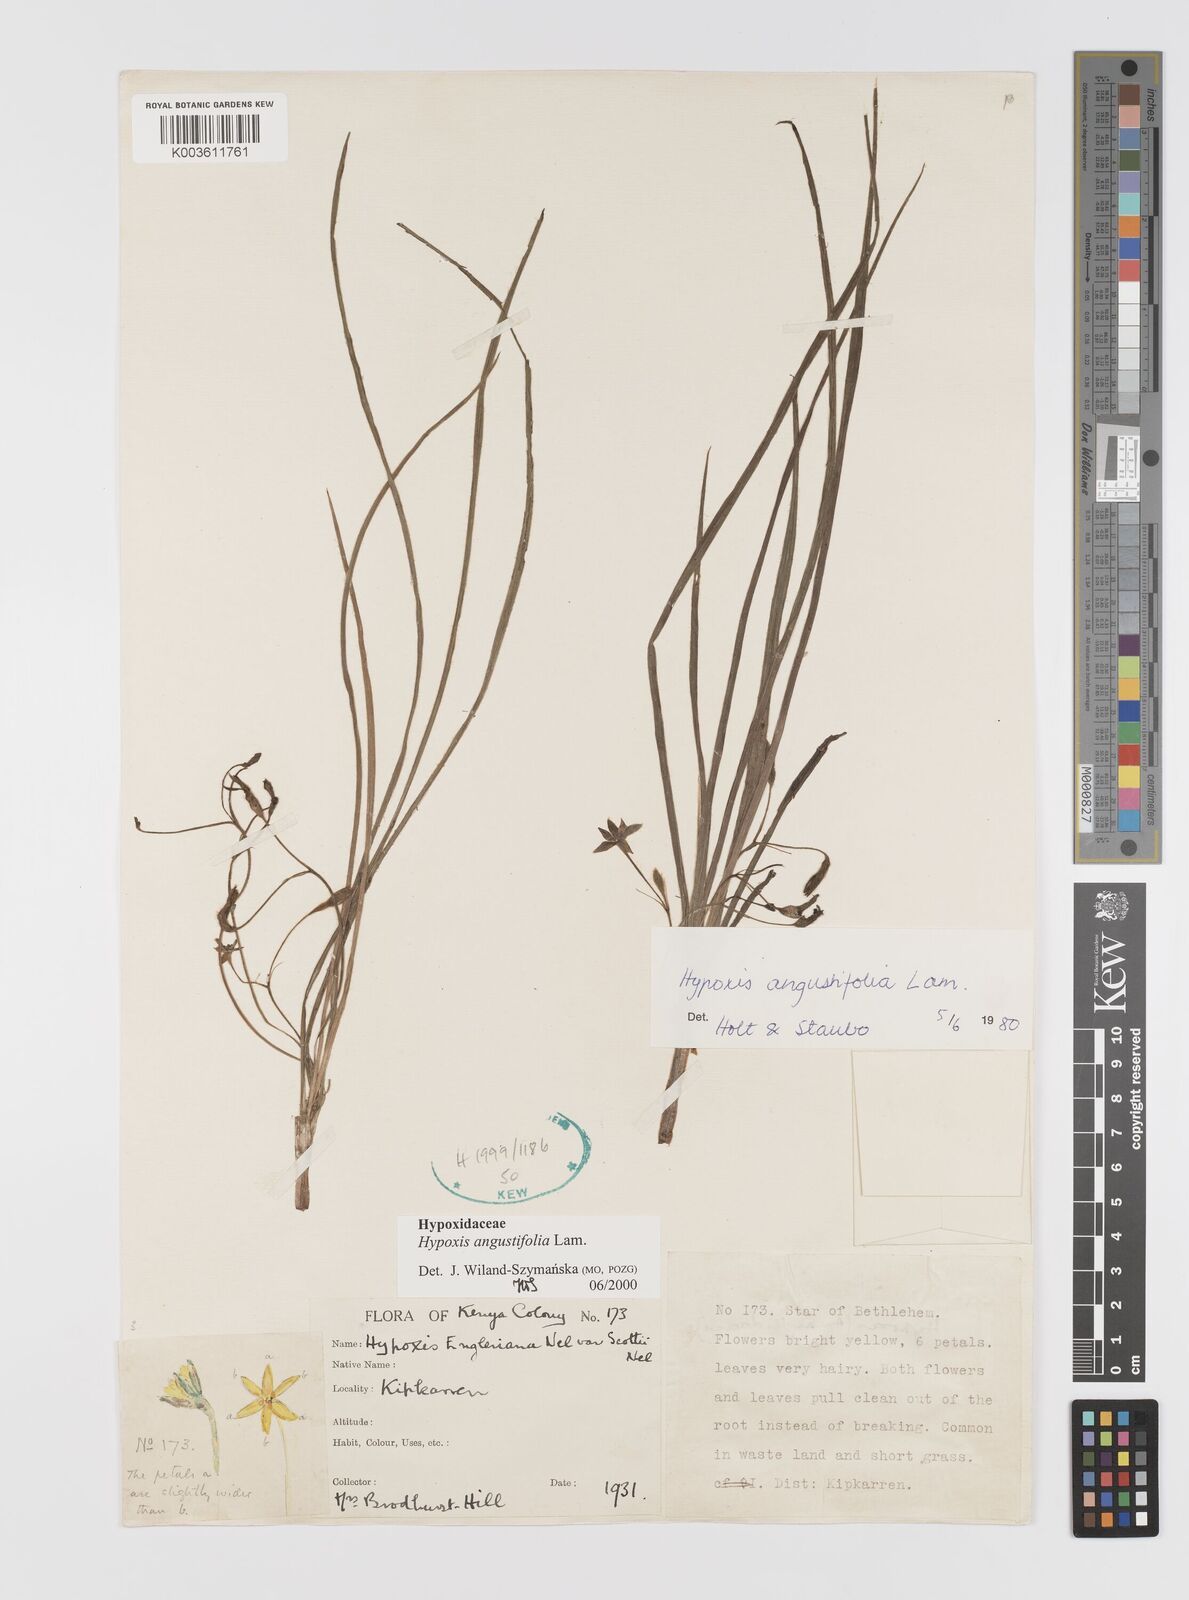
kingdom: Plantae
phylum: Tracheophyta
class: Liliopsida
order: Asparagales
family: Hypoxidaceae
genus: Hypoxis
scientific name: Hypoxis angustifolia
